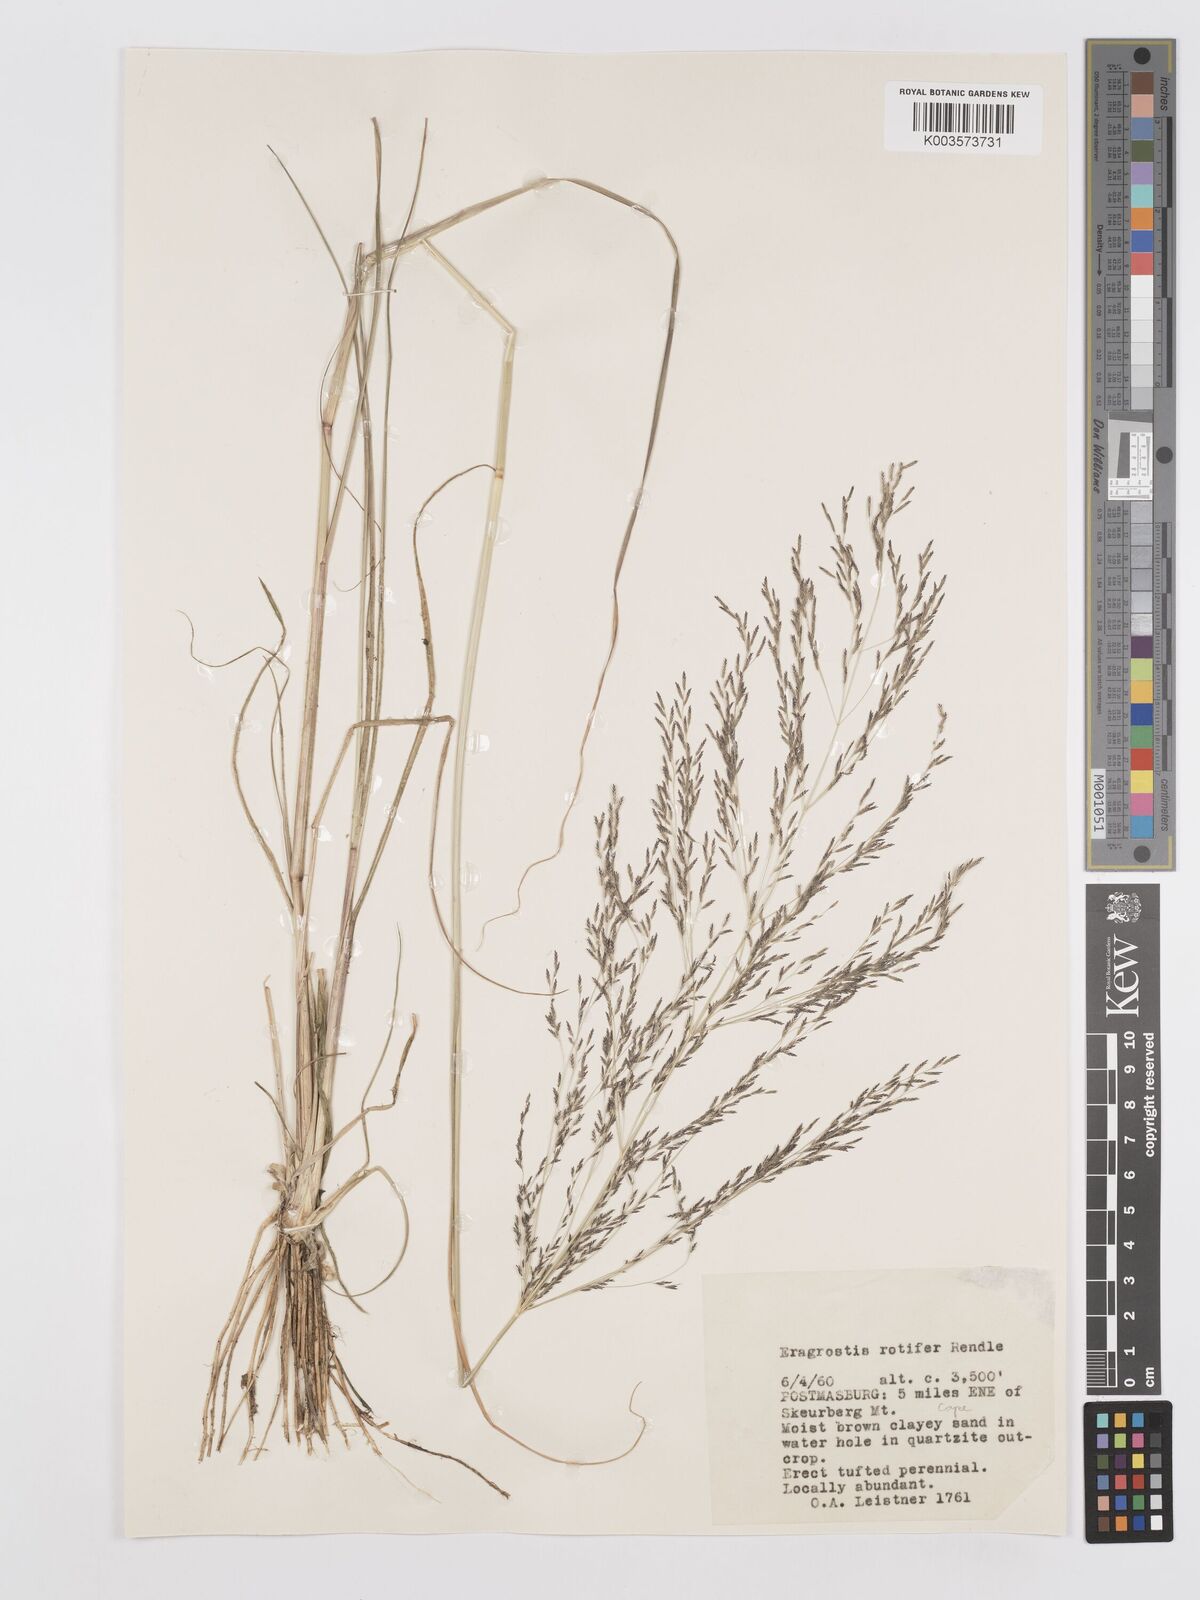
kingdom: Plantae
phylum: Tracheophyta
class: Liliopsida
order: Poales
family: Poaceae
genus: Eragrostis
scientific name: Eragrostis rotifer
